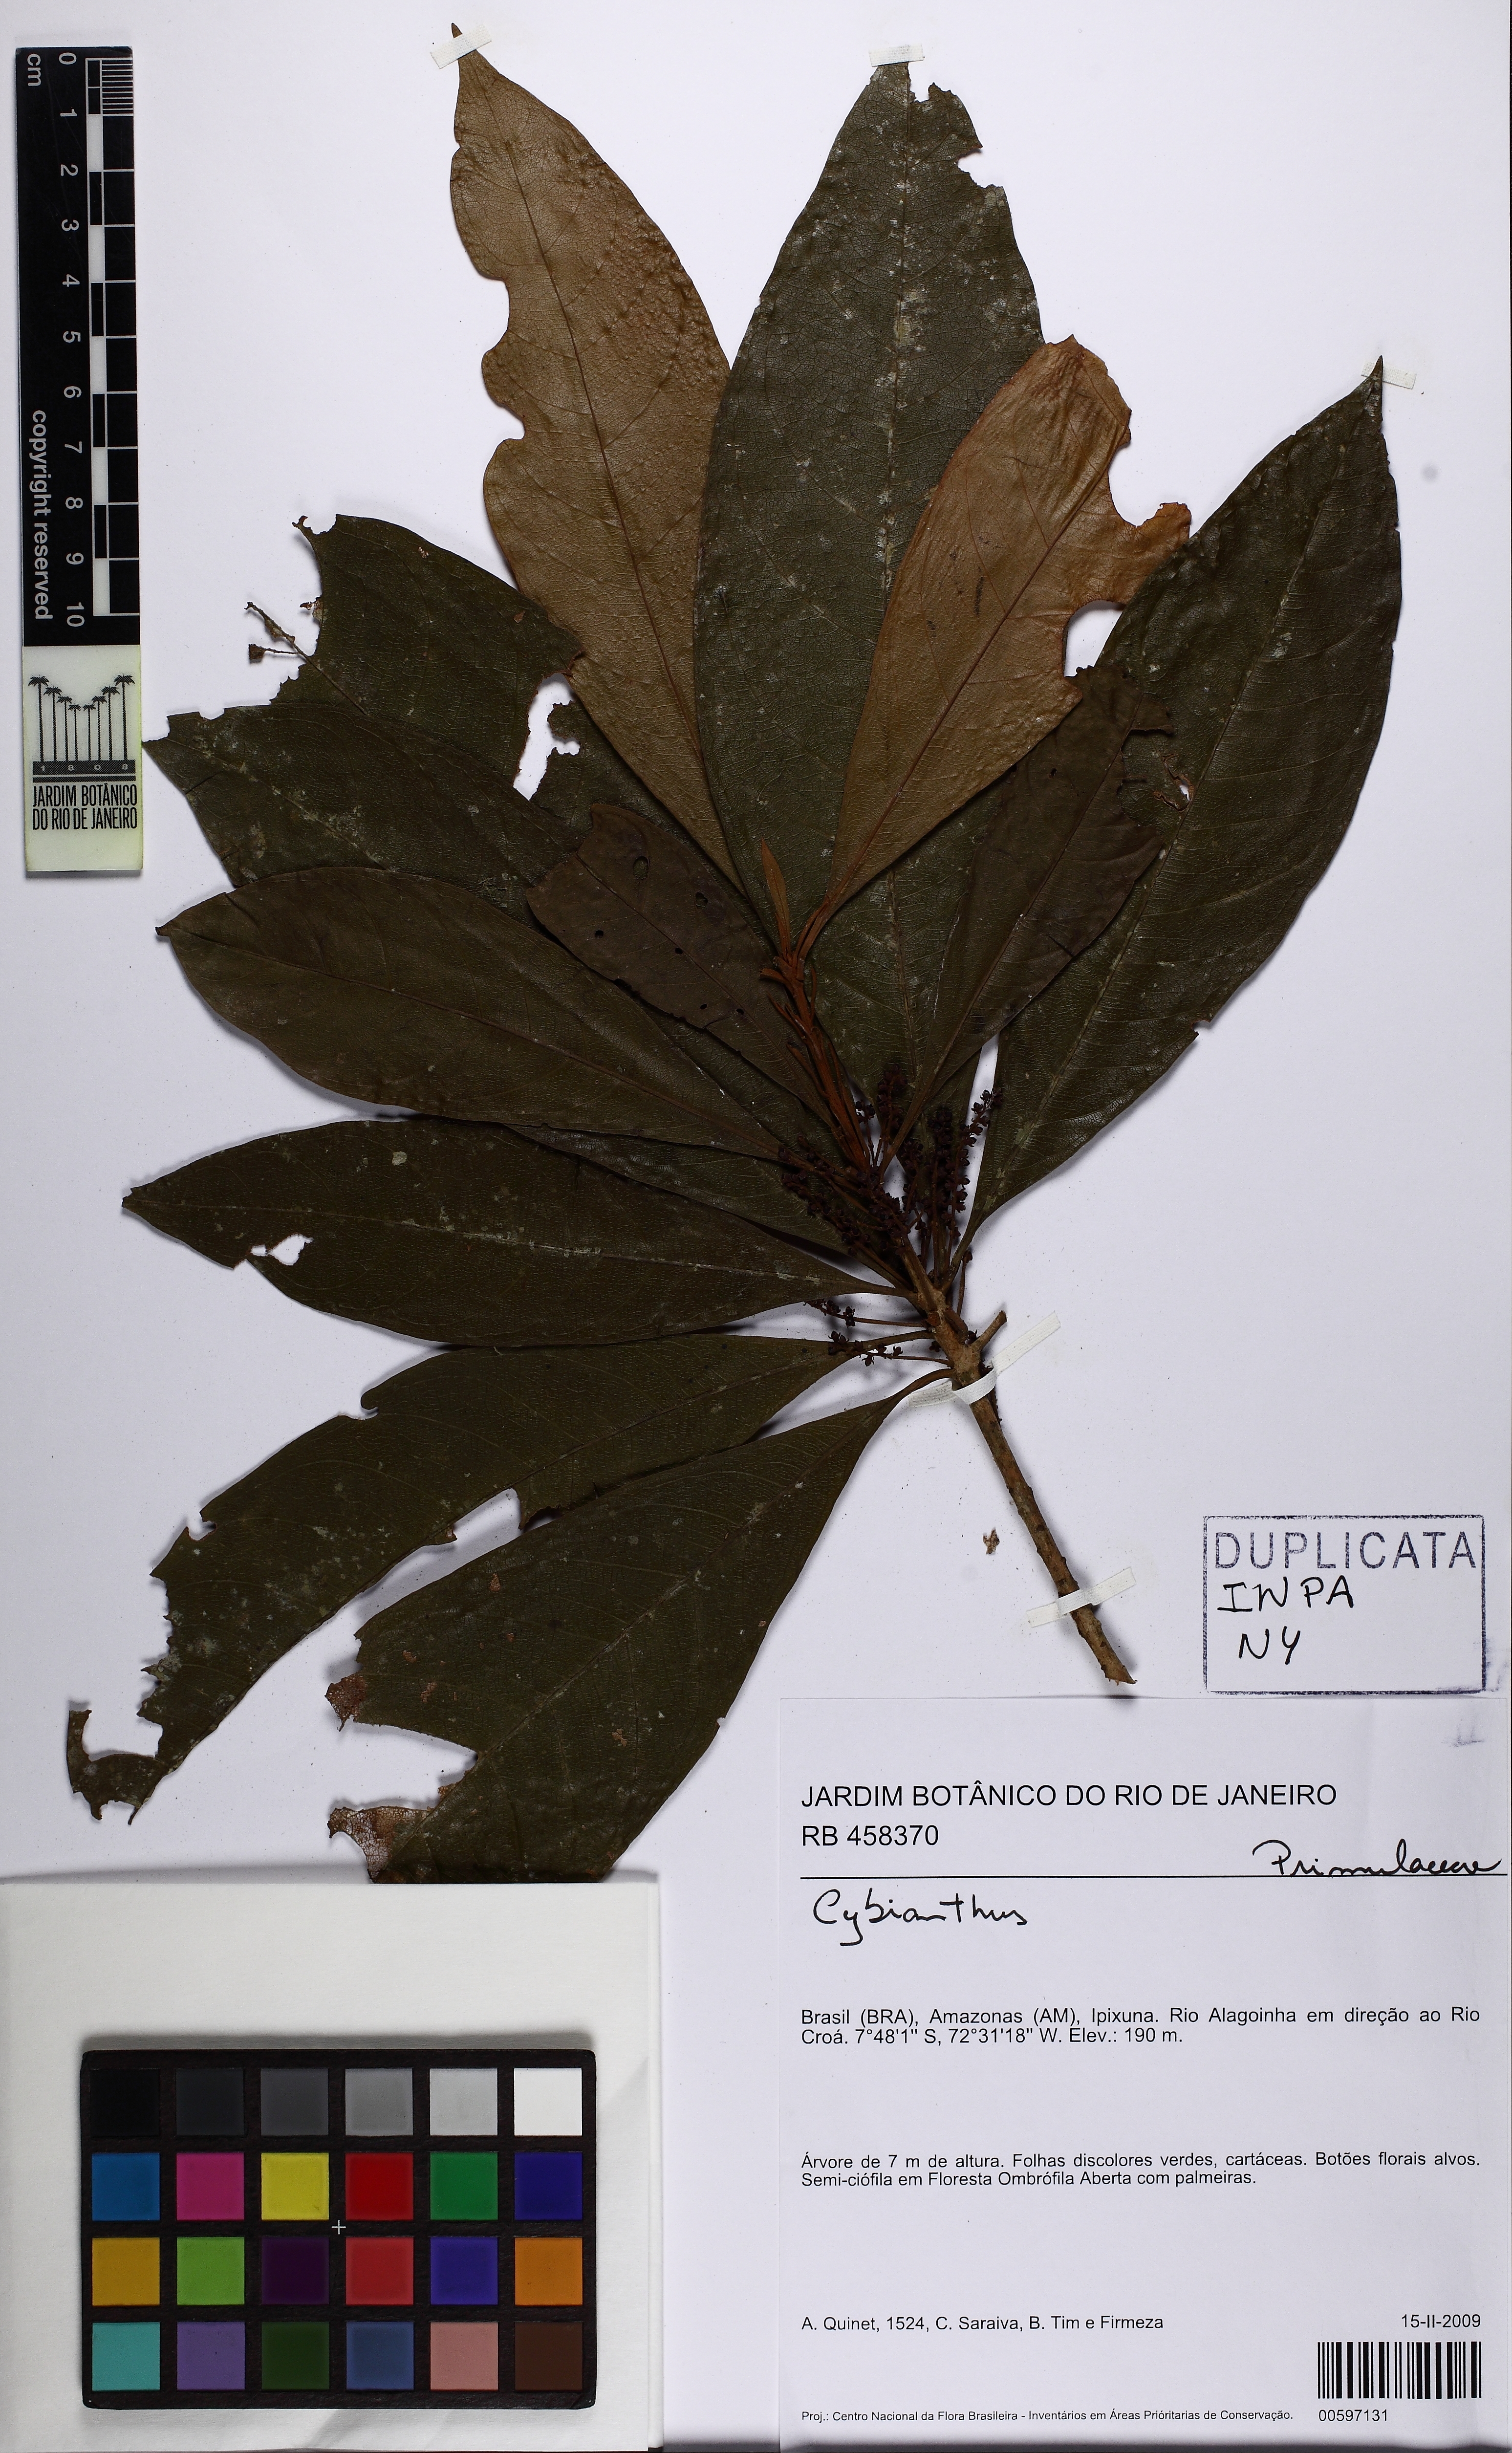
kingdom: Plantae
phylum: Tracheophyta
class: Magnoliopsida
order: Ericales
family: Primulaceae
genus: Cybianthus
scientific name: Cybianthus
